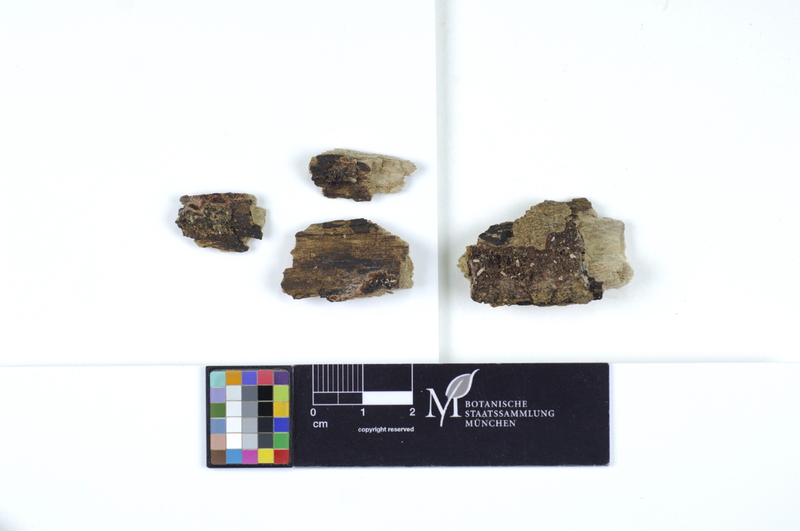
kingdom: Plantae
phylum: Tracheophyta
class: Magnoliopsida
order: Lamiales
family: Oleaceae
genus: Fraxinus
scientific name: Fraxinus
